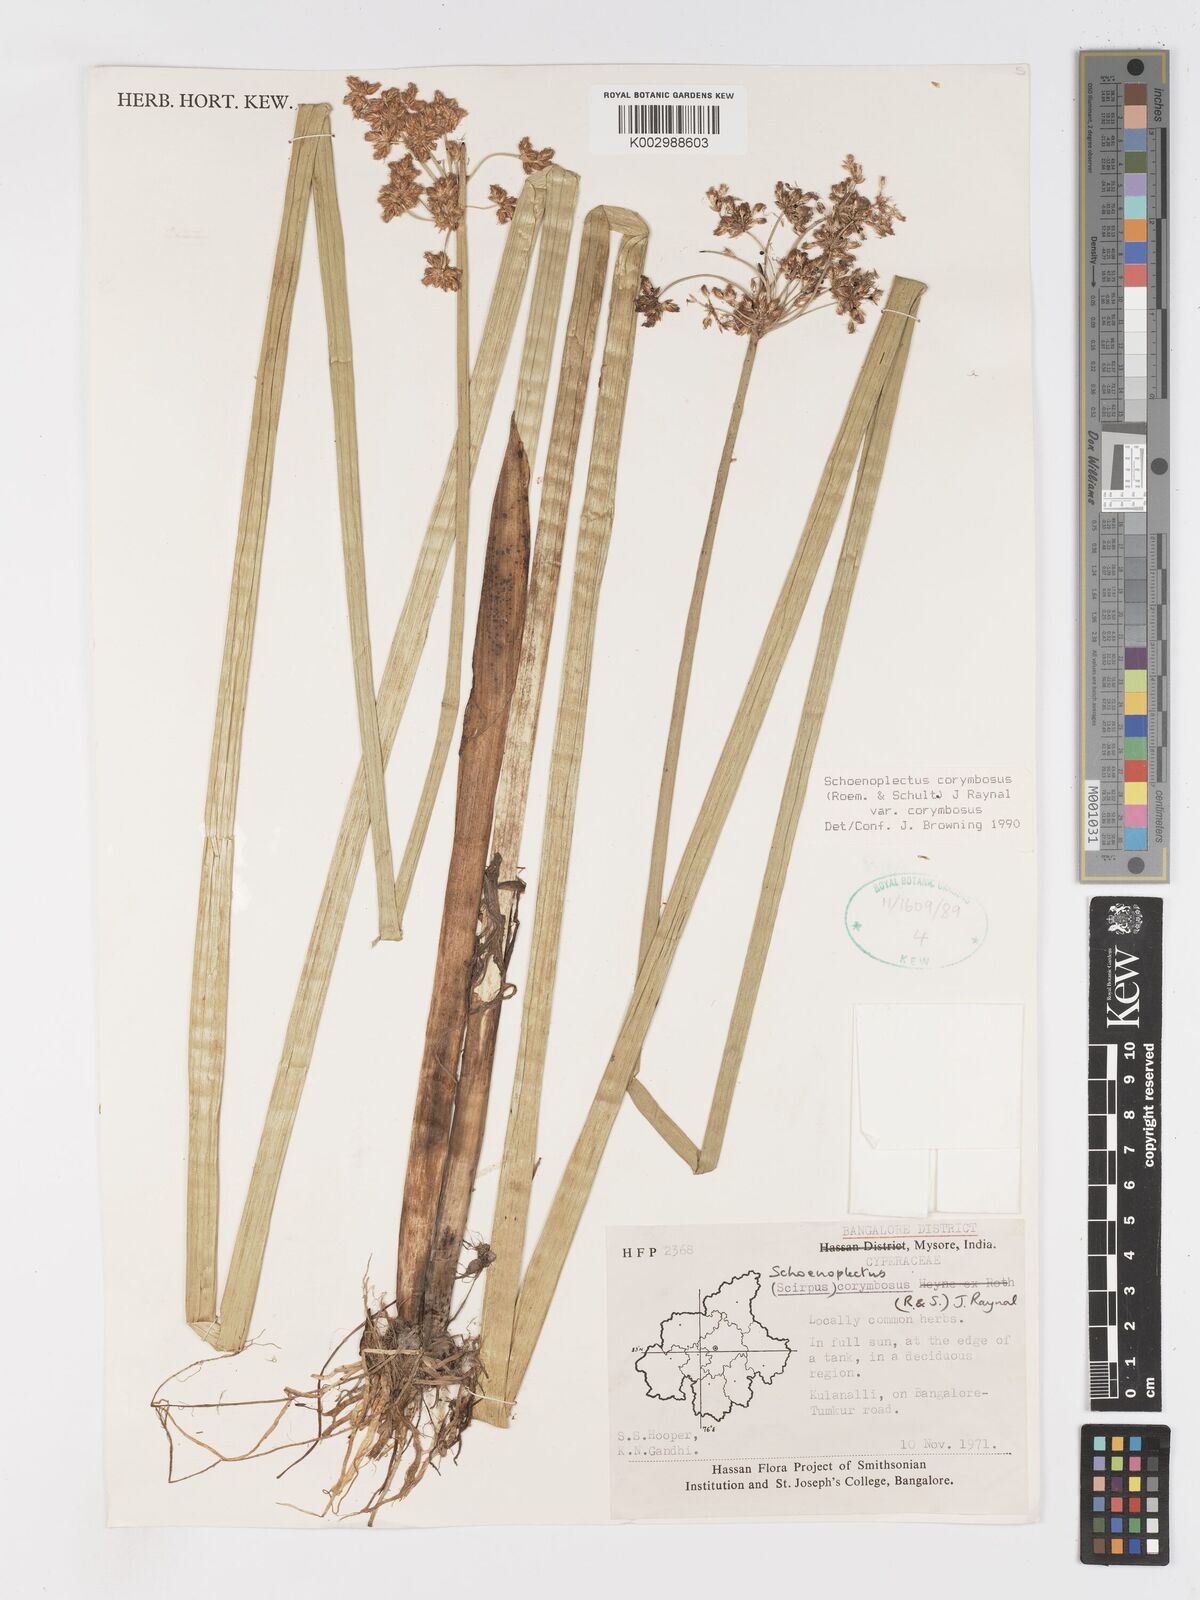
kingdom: Plantae
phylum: Tracheophyta
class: Liliopsida
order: Poales
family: Cyperaceae
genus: Schoenoplectiella
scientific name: Schoenoplectiella corymbosa
